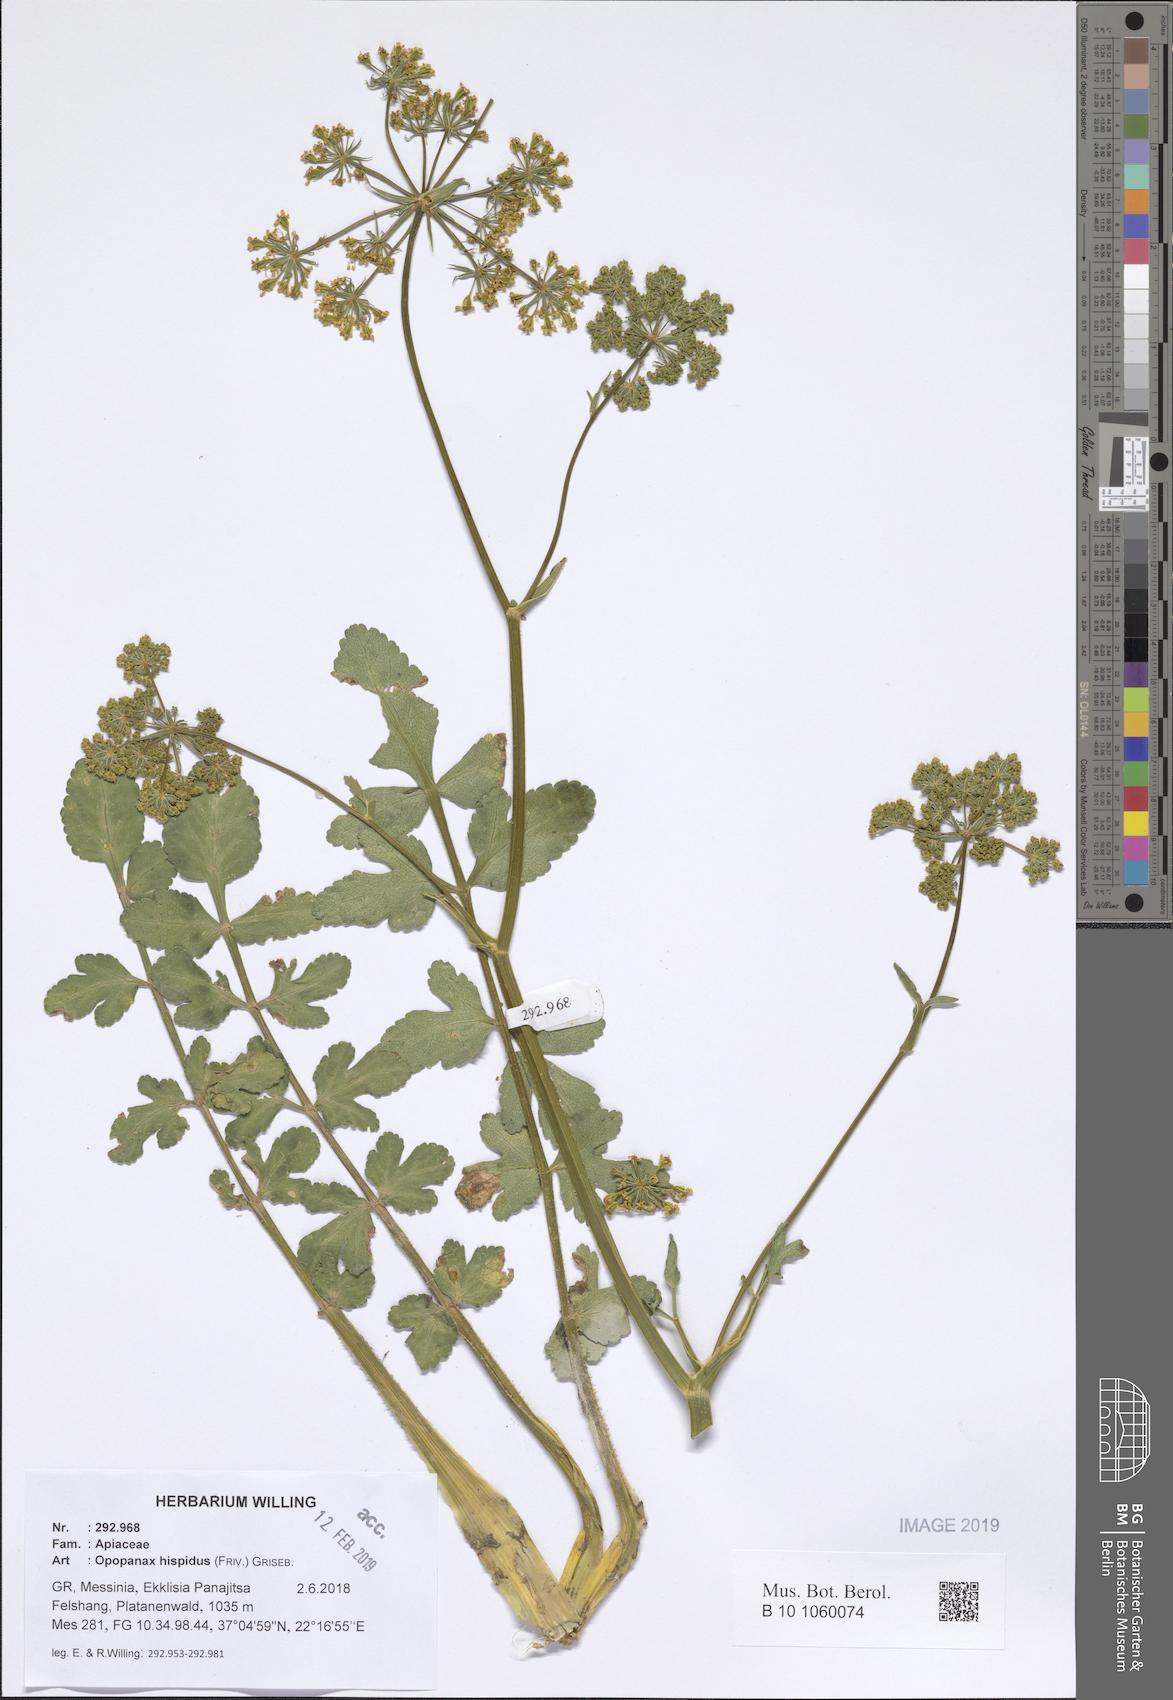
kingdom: Plantae
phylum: Tracheophyta
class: Magnoliopsida
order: Apiales
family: Apiaceae
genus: Opopanax
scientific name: Opopanax hispidus
